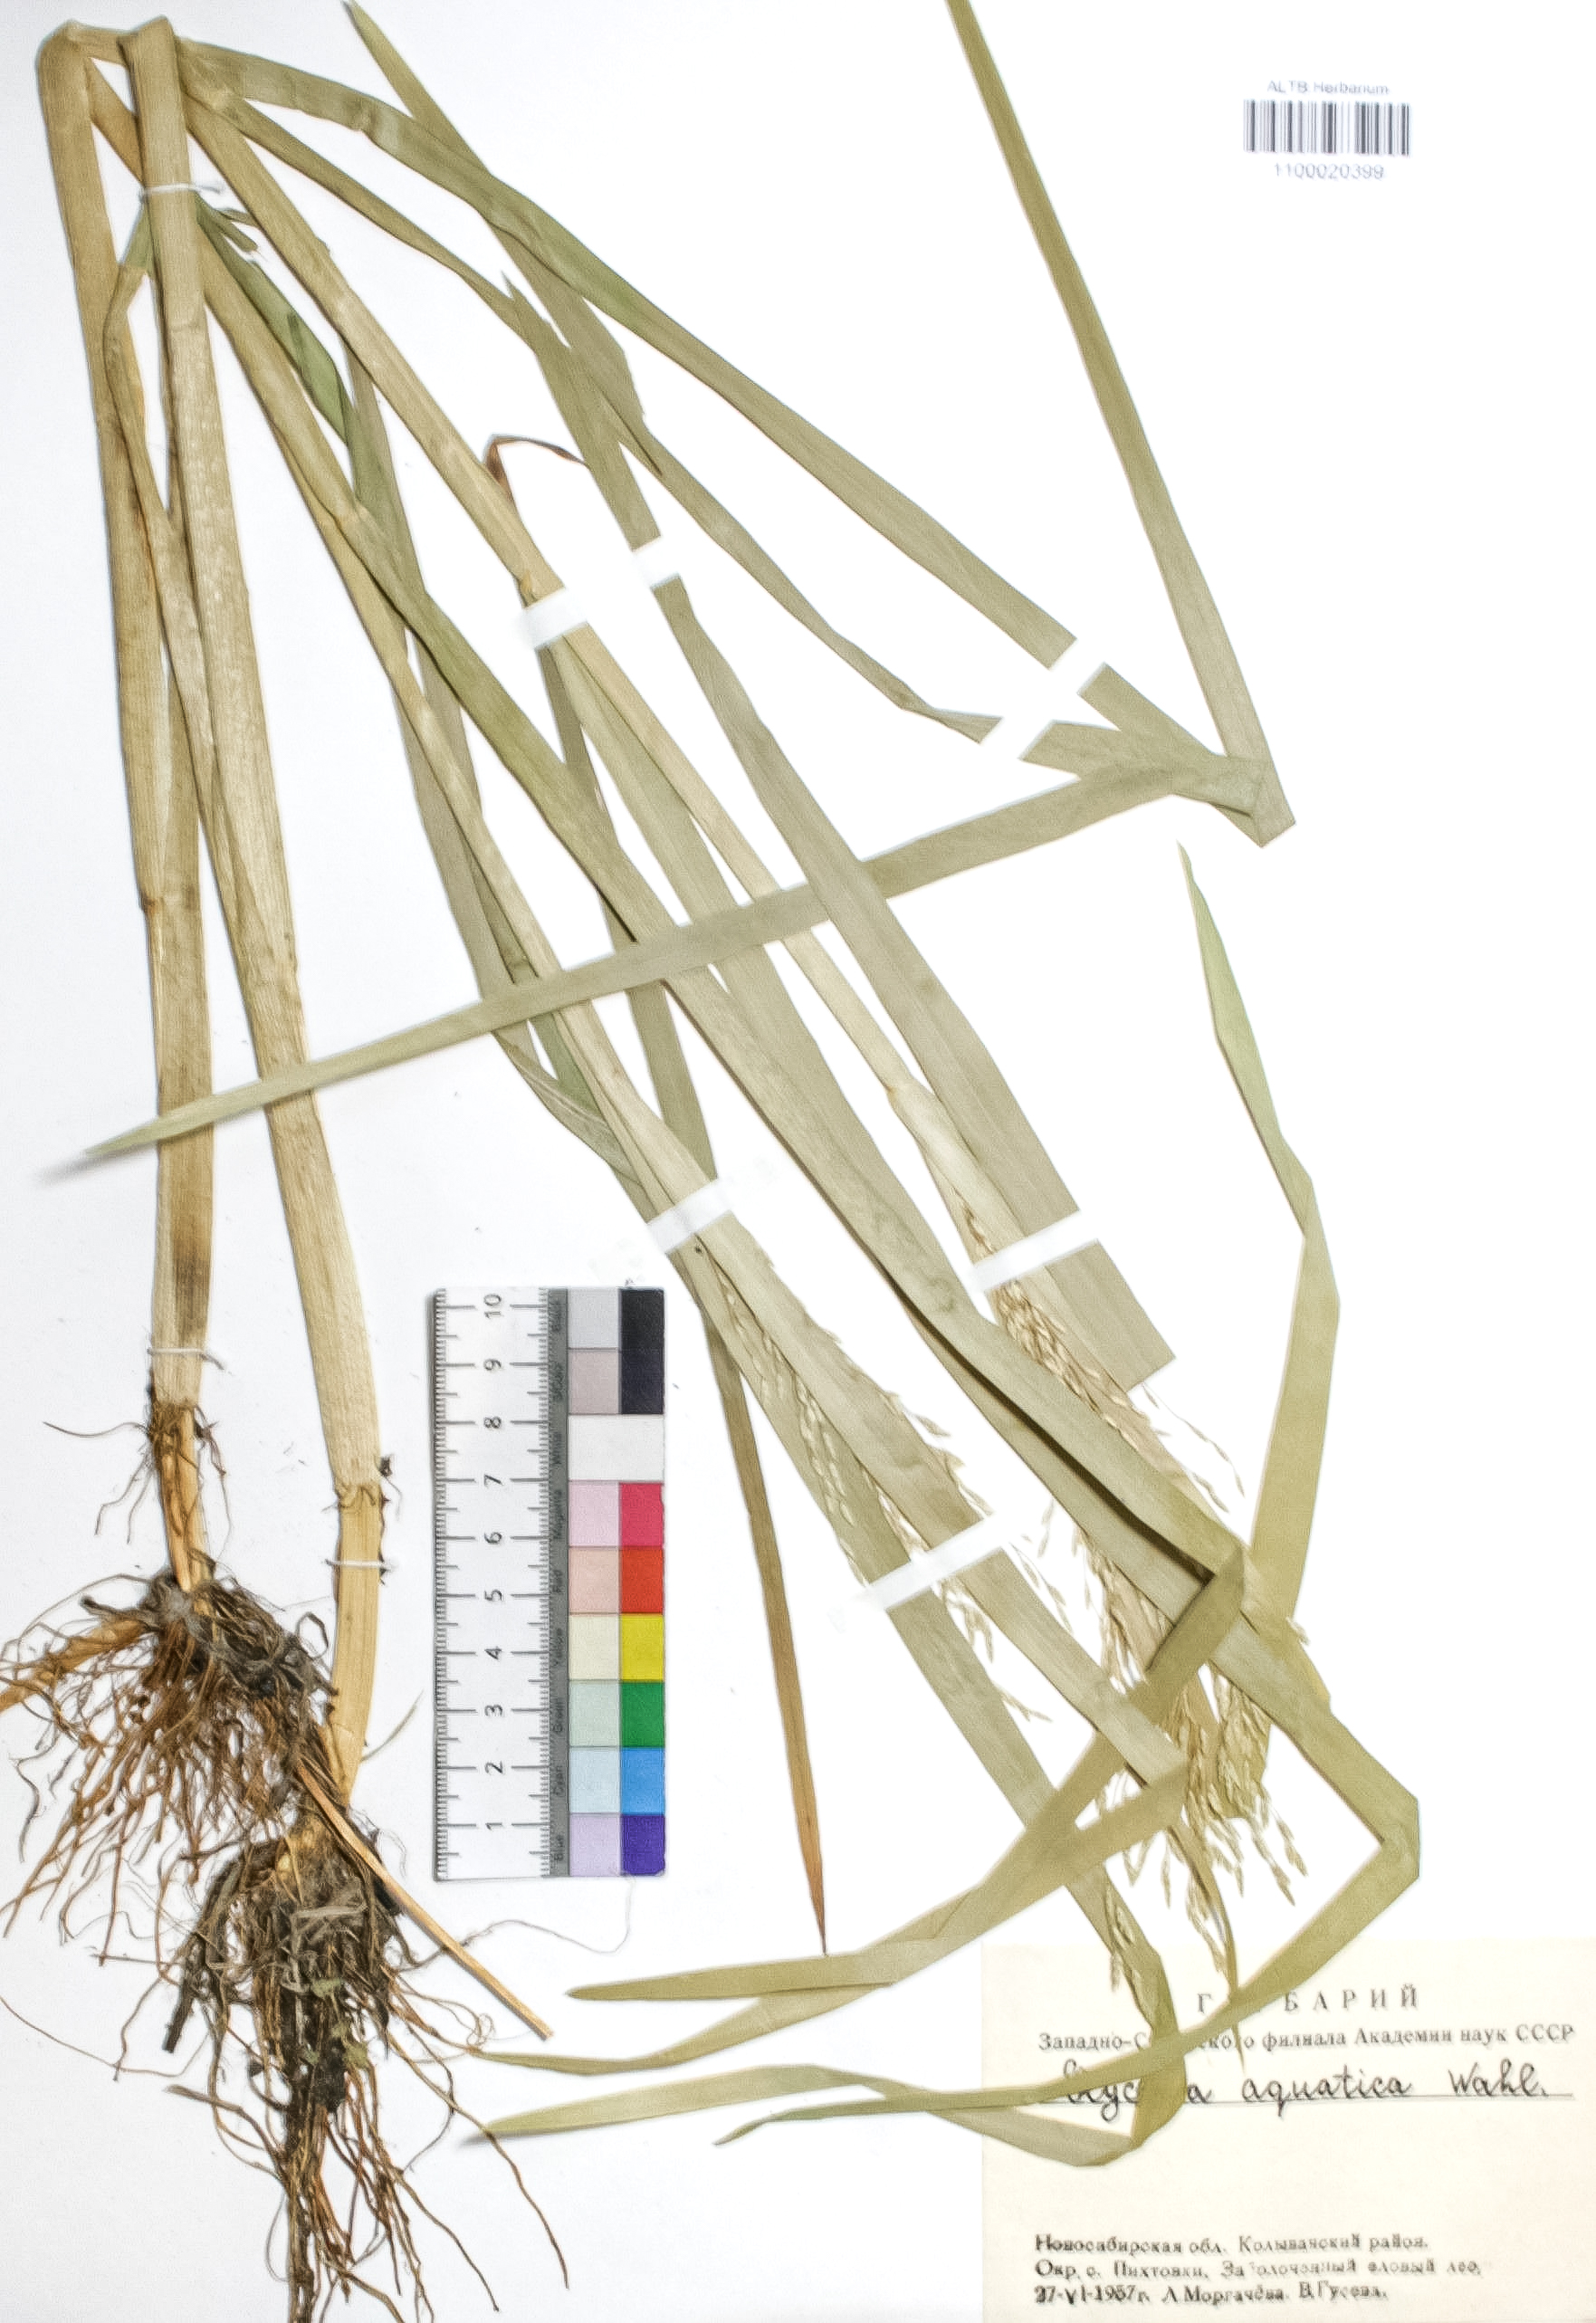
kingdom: Plantae
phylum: Tracheophyta
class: Liliopsida
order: Poales
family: Poaceae
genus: Glyceria
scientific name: Glyceria maxima
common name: Reed mannagrass
